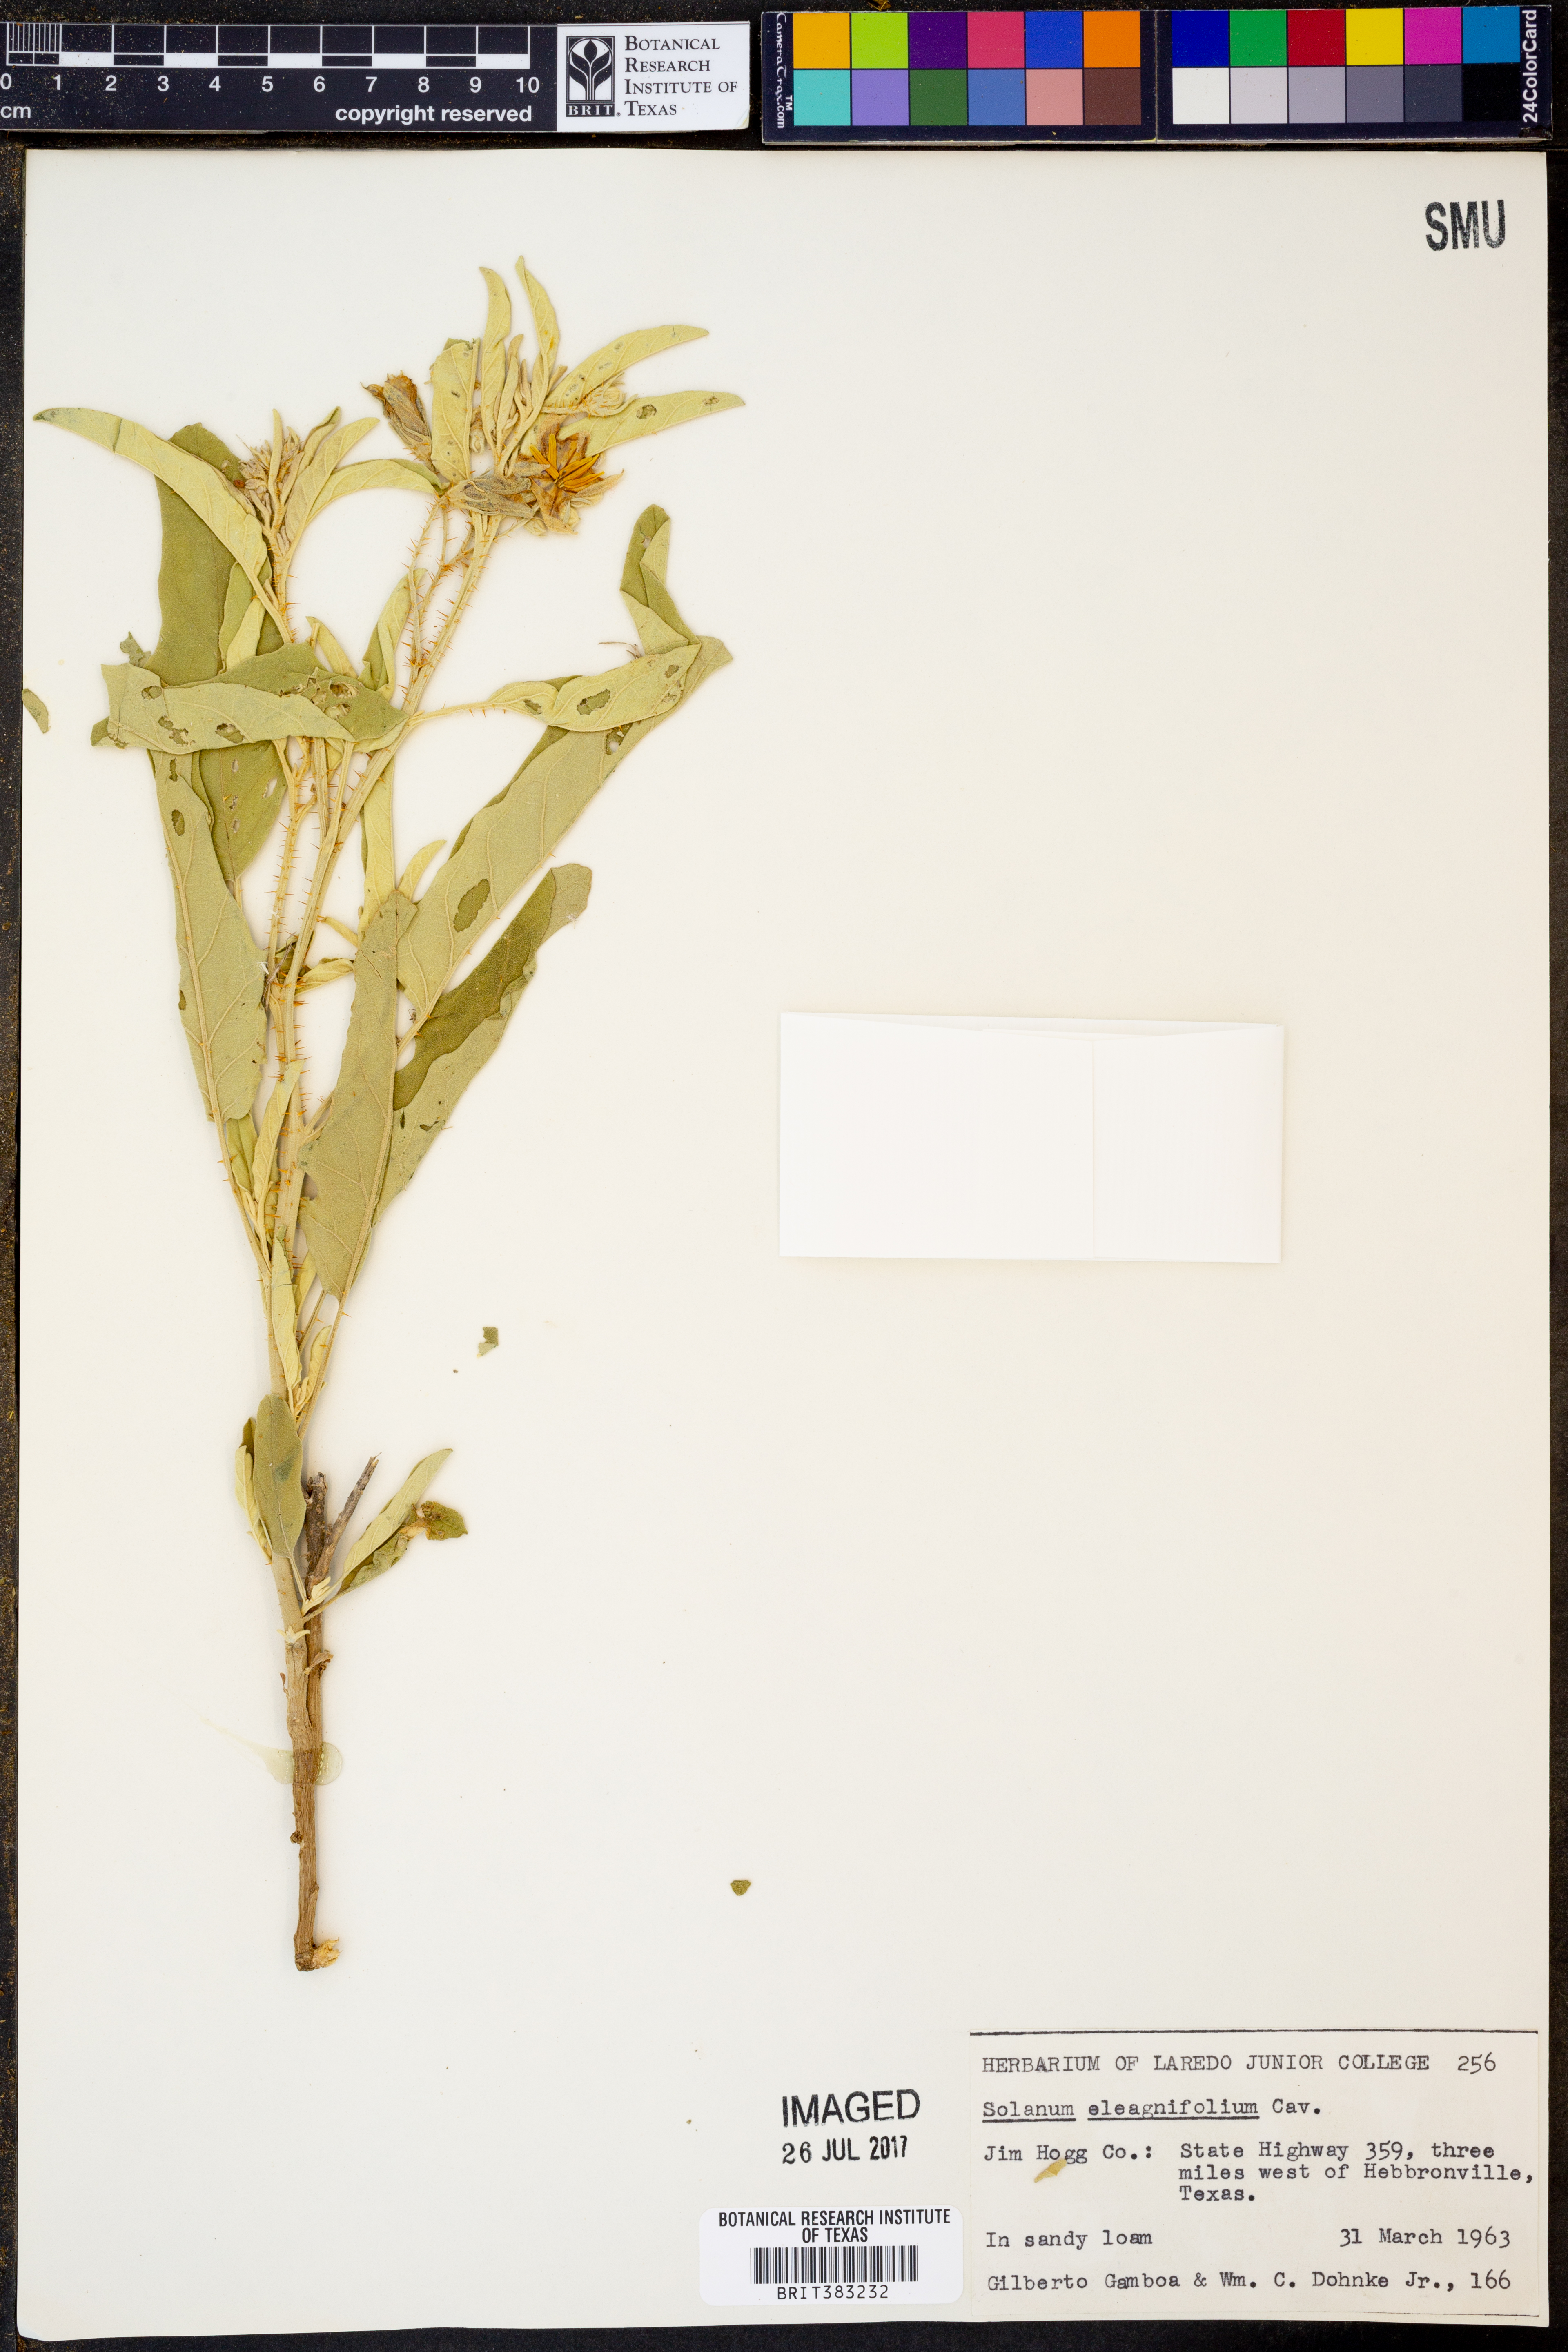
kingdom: Plantae
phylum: Tracheophyta
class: Magnoliopsida
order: Solanales
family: Solanaceae
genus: Solanum
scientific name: Solanum elaeagnifolium
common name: Silverleaf nightshade
